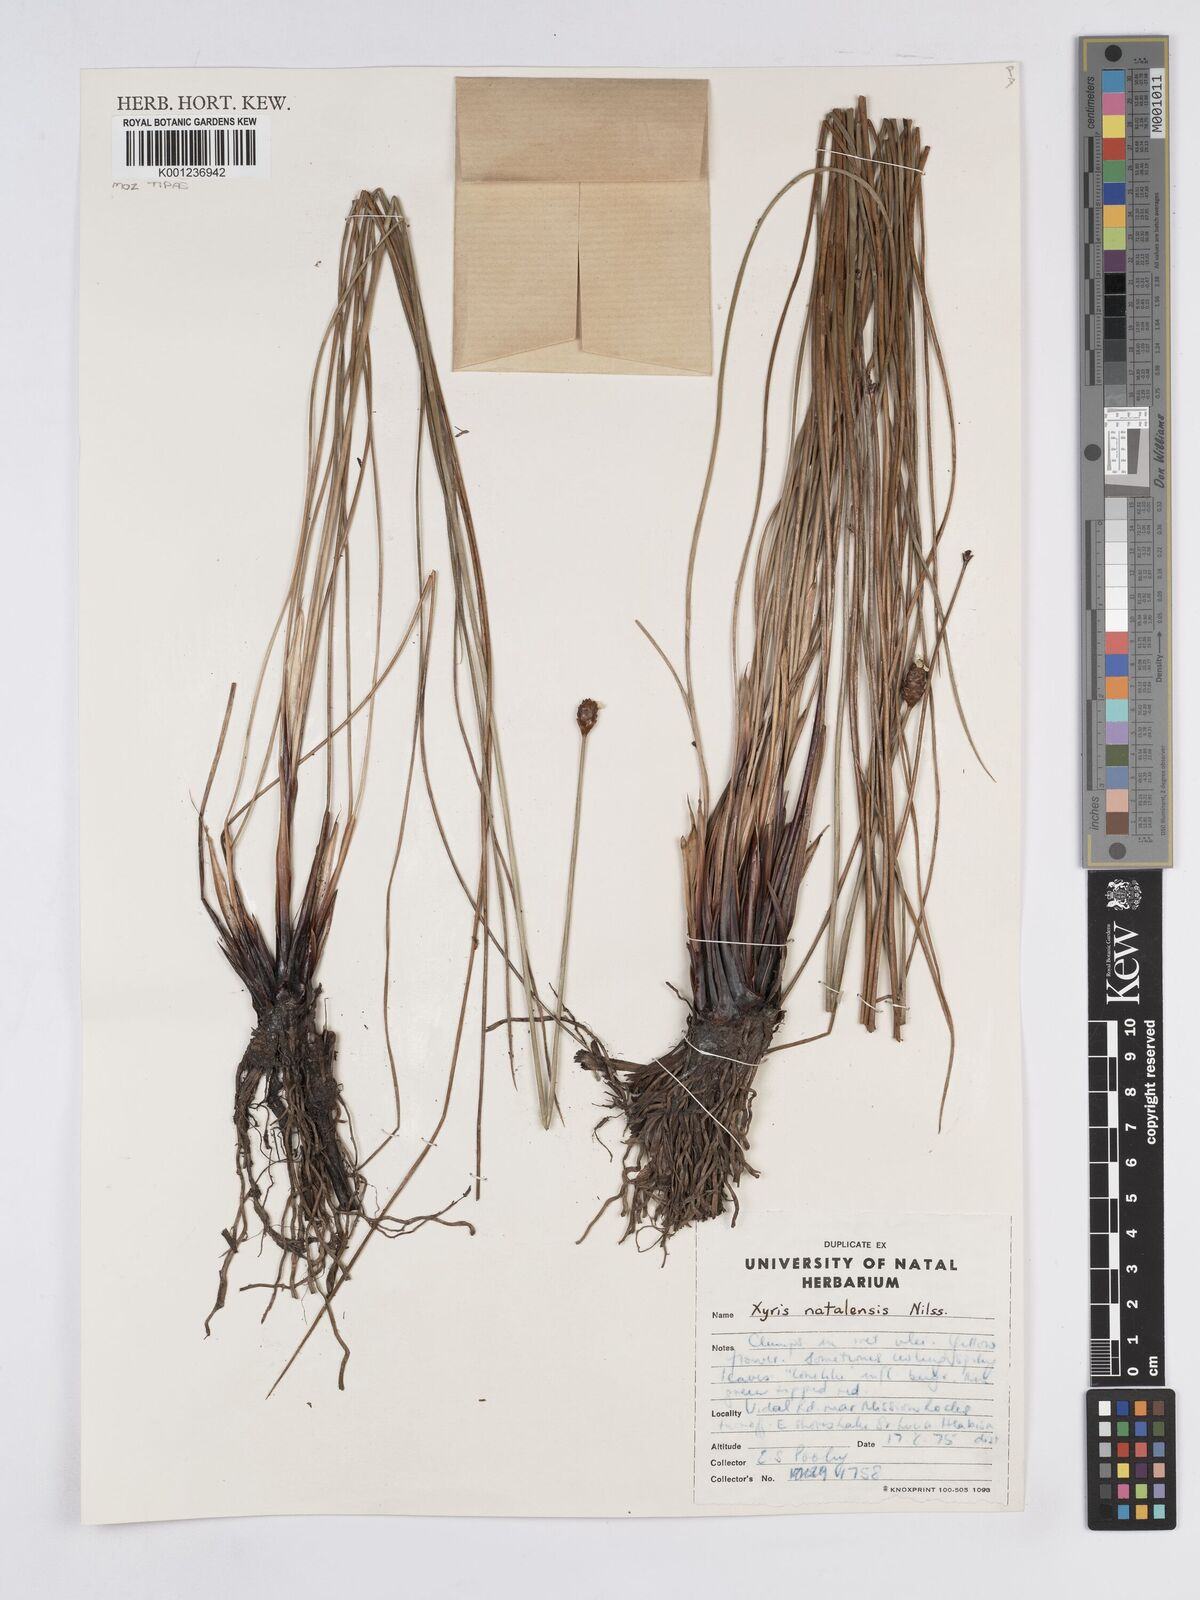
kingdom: Plantae
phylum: Tracheophyta
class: Liliopsida
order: Poales
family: Xyridaceae
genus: Xyris
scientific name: Xyris natalensis
